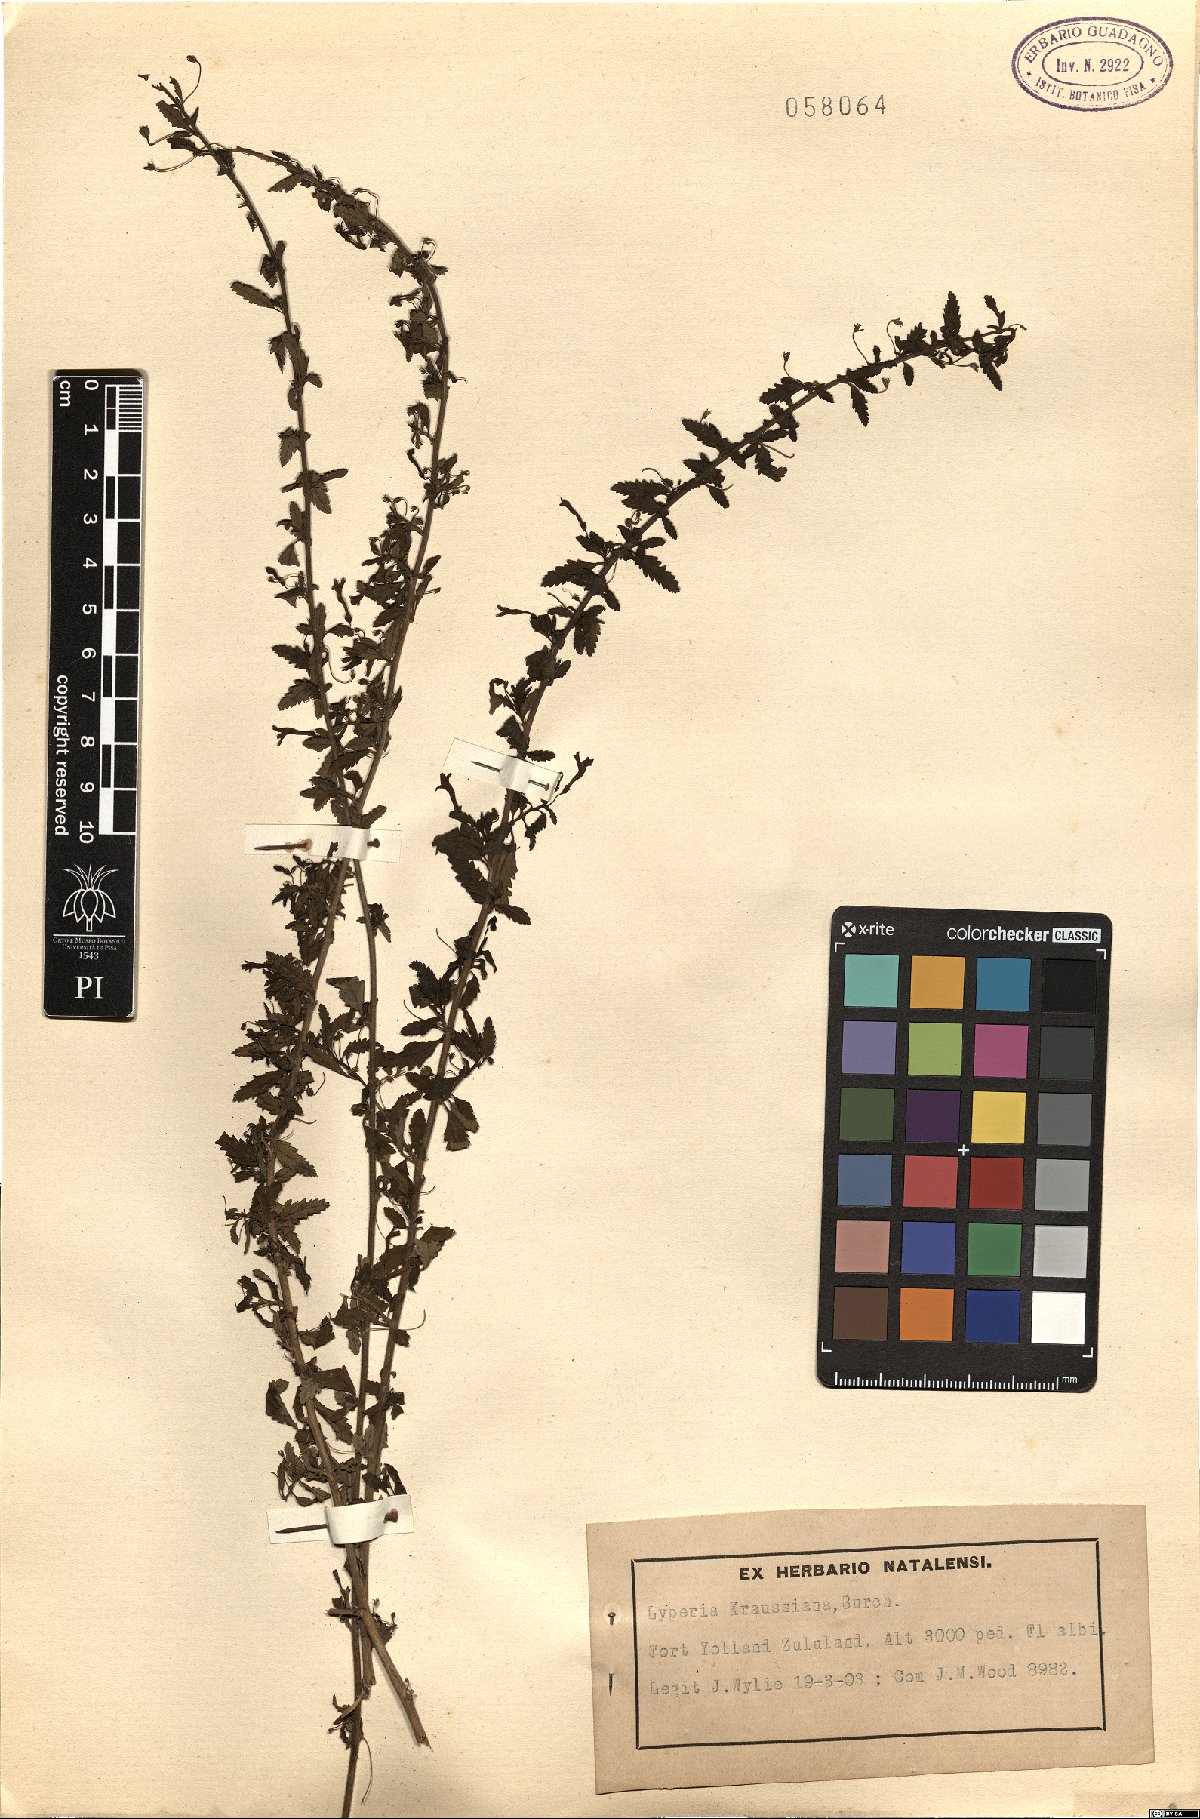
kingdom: Plantae
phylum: Tracheophyta
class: Magnoliopsida
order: Lamiales
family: Scrophulariaceae
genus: Jamesbrittenia
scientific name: Jamesbrittenia kraussiana
